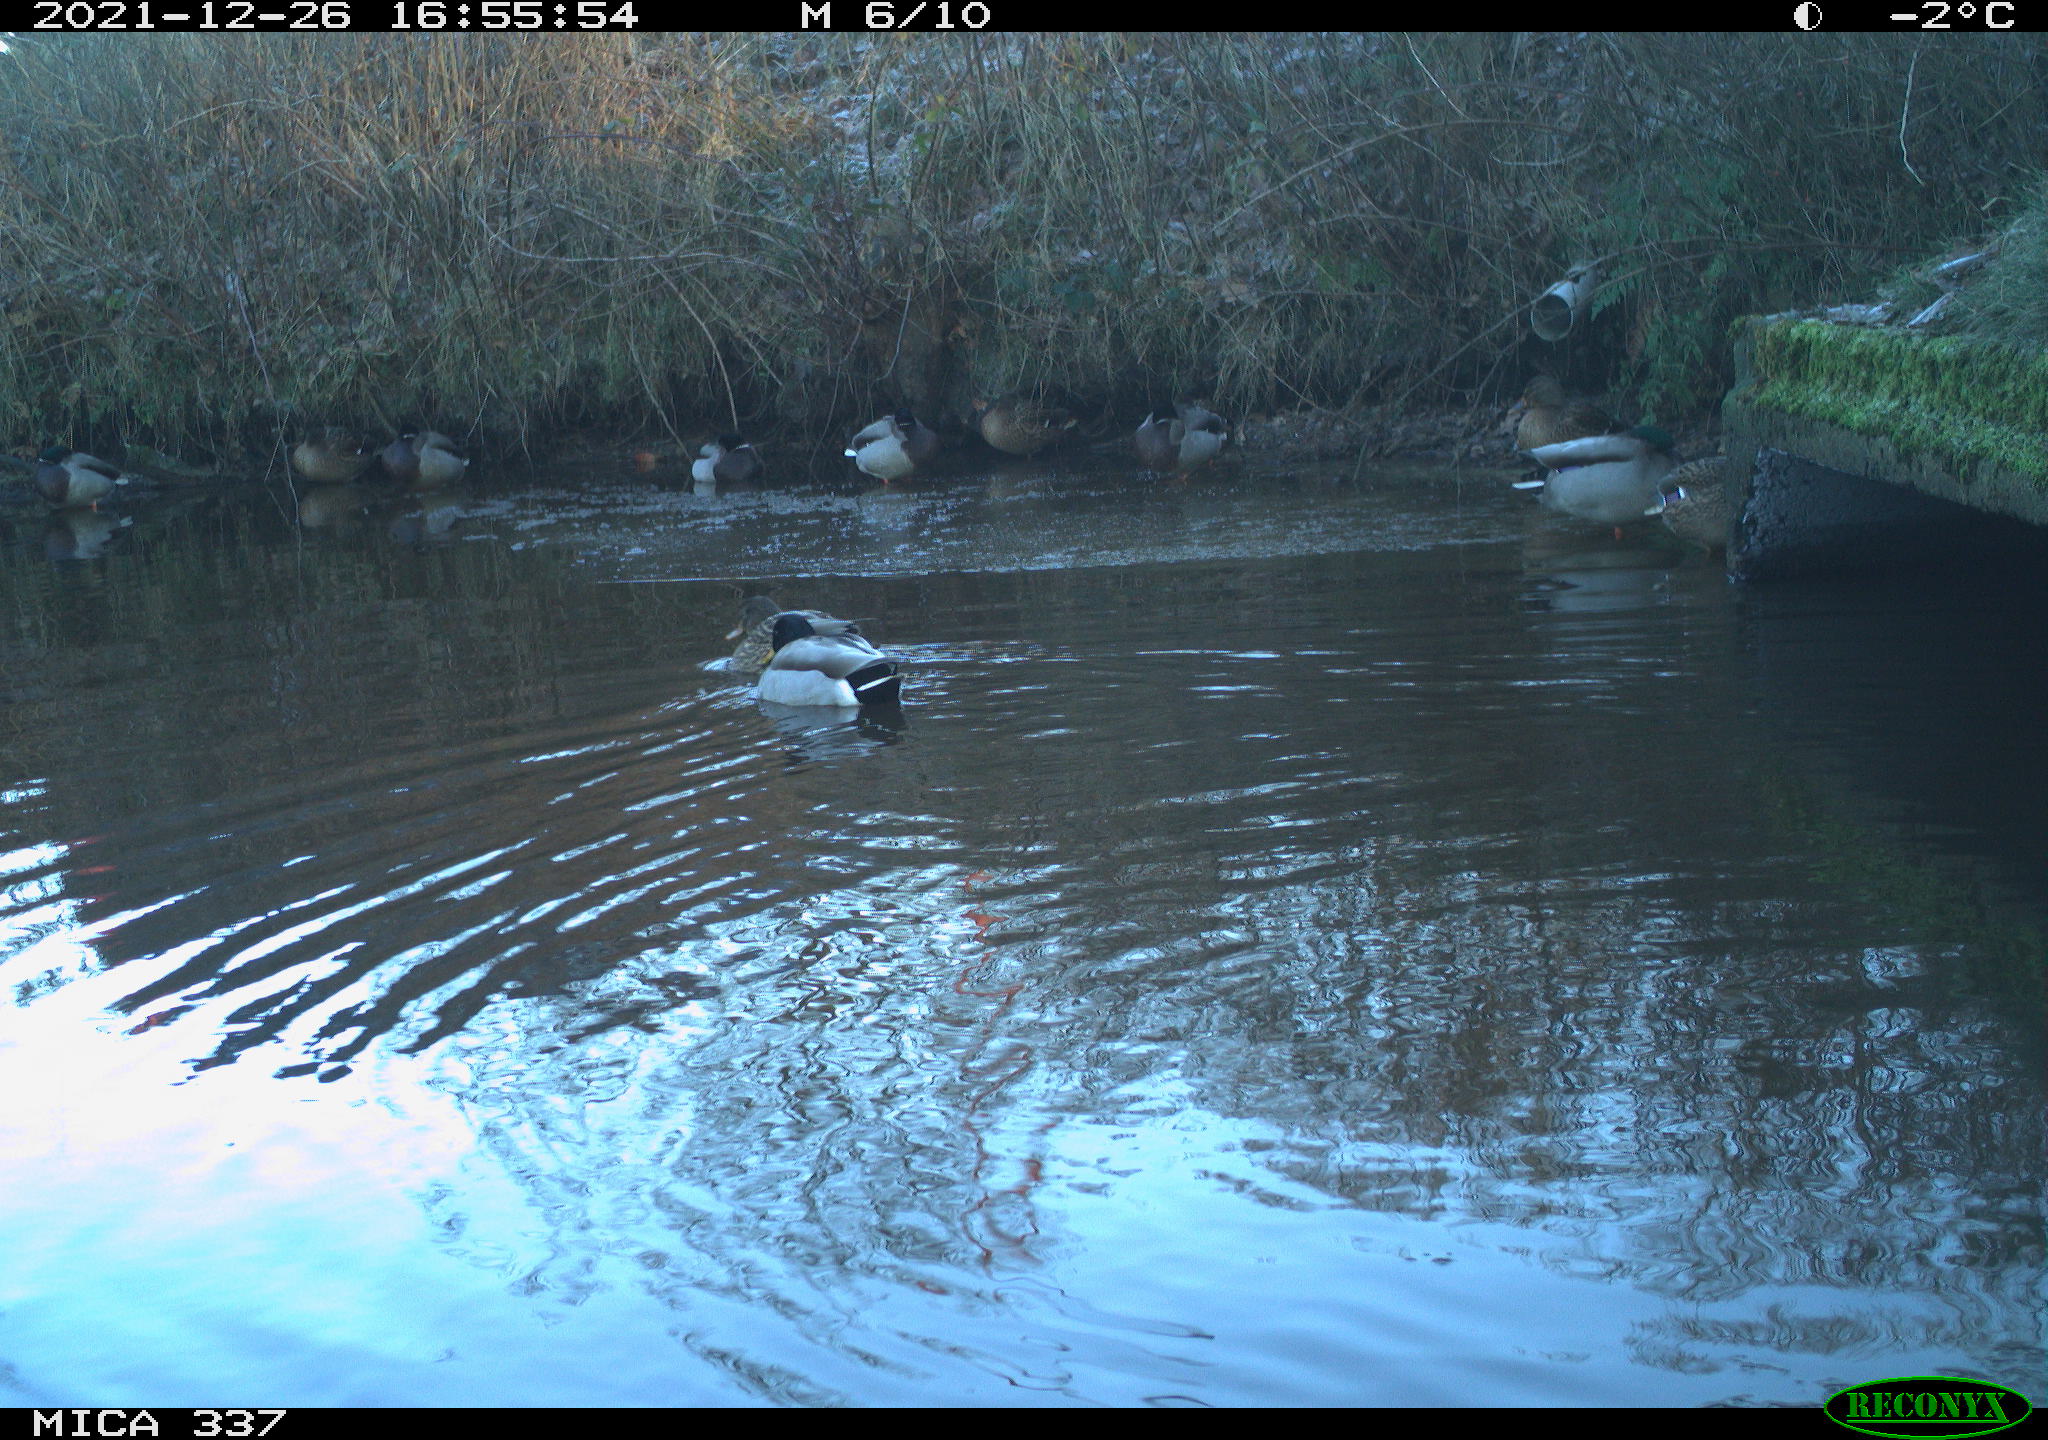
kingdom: Animalia
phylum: Chordata
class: Aves
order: Anseriformes
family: Anatidae
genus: Anas
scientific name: Anas platyrhynchos
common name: Mallard
